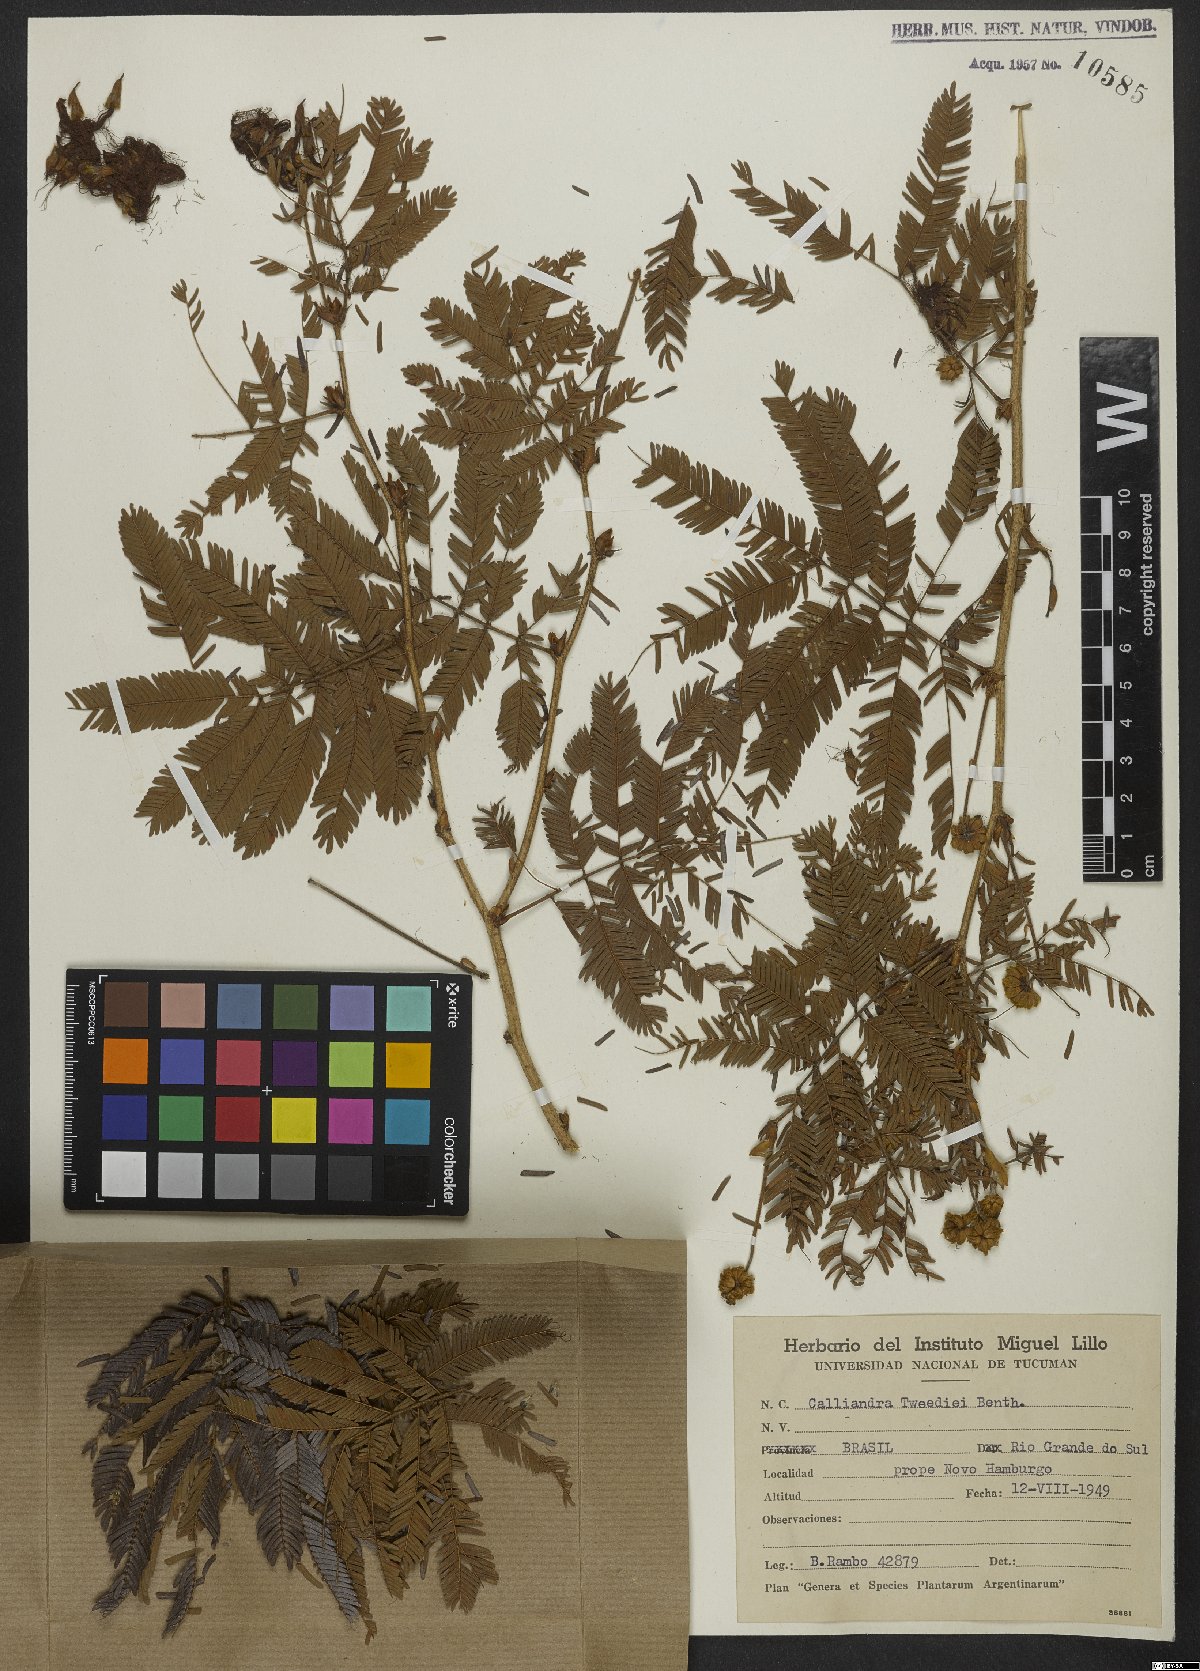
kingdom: Plantae
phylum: Tracheophyta
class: Magnoliopsida
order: Fabales
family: Fabaceae
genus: Calliandra
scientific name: Calliandra tweedii
